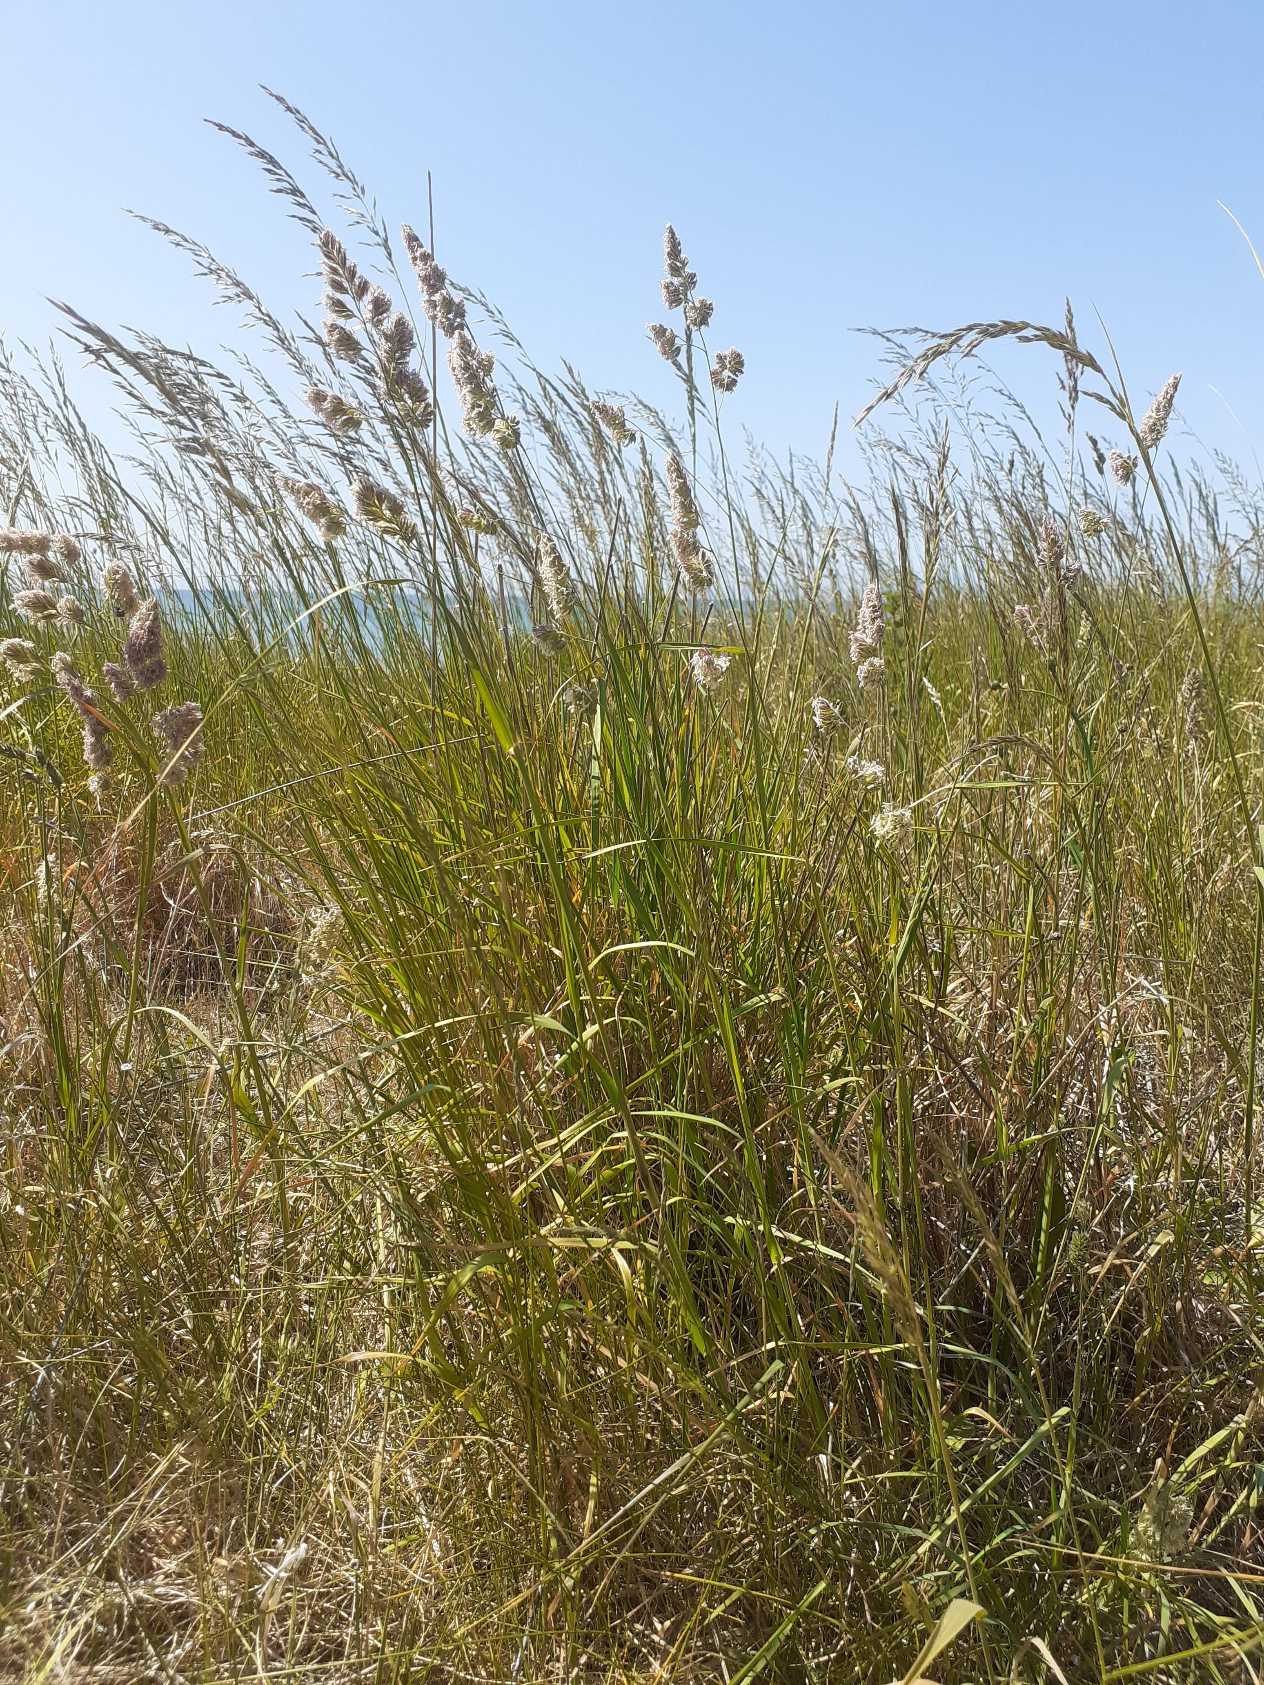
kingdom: Plantae
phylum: Tracheophyta
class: Liliopsida
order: Poales
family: Poaceae
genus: Dactylis
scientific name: Dactylis glomerata
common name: Almindelig hundegræs
